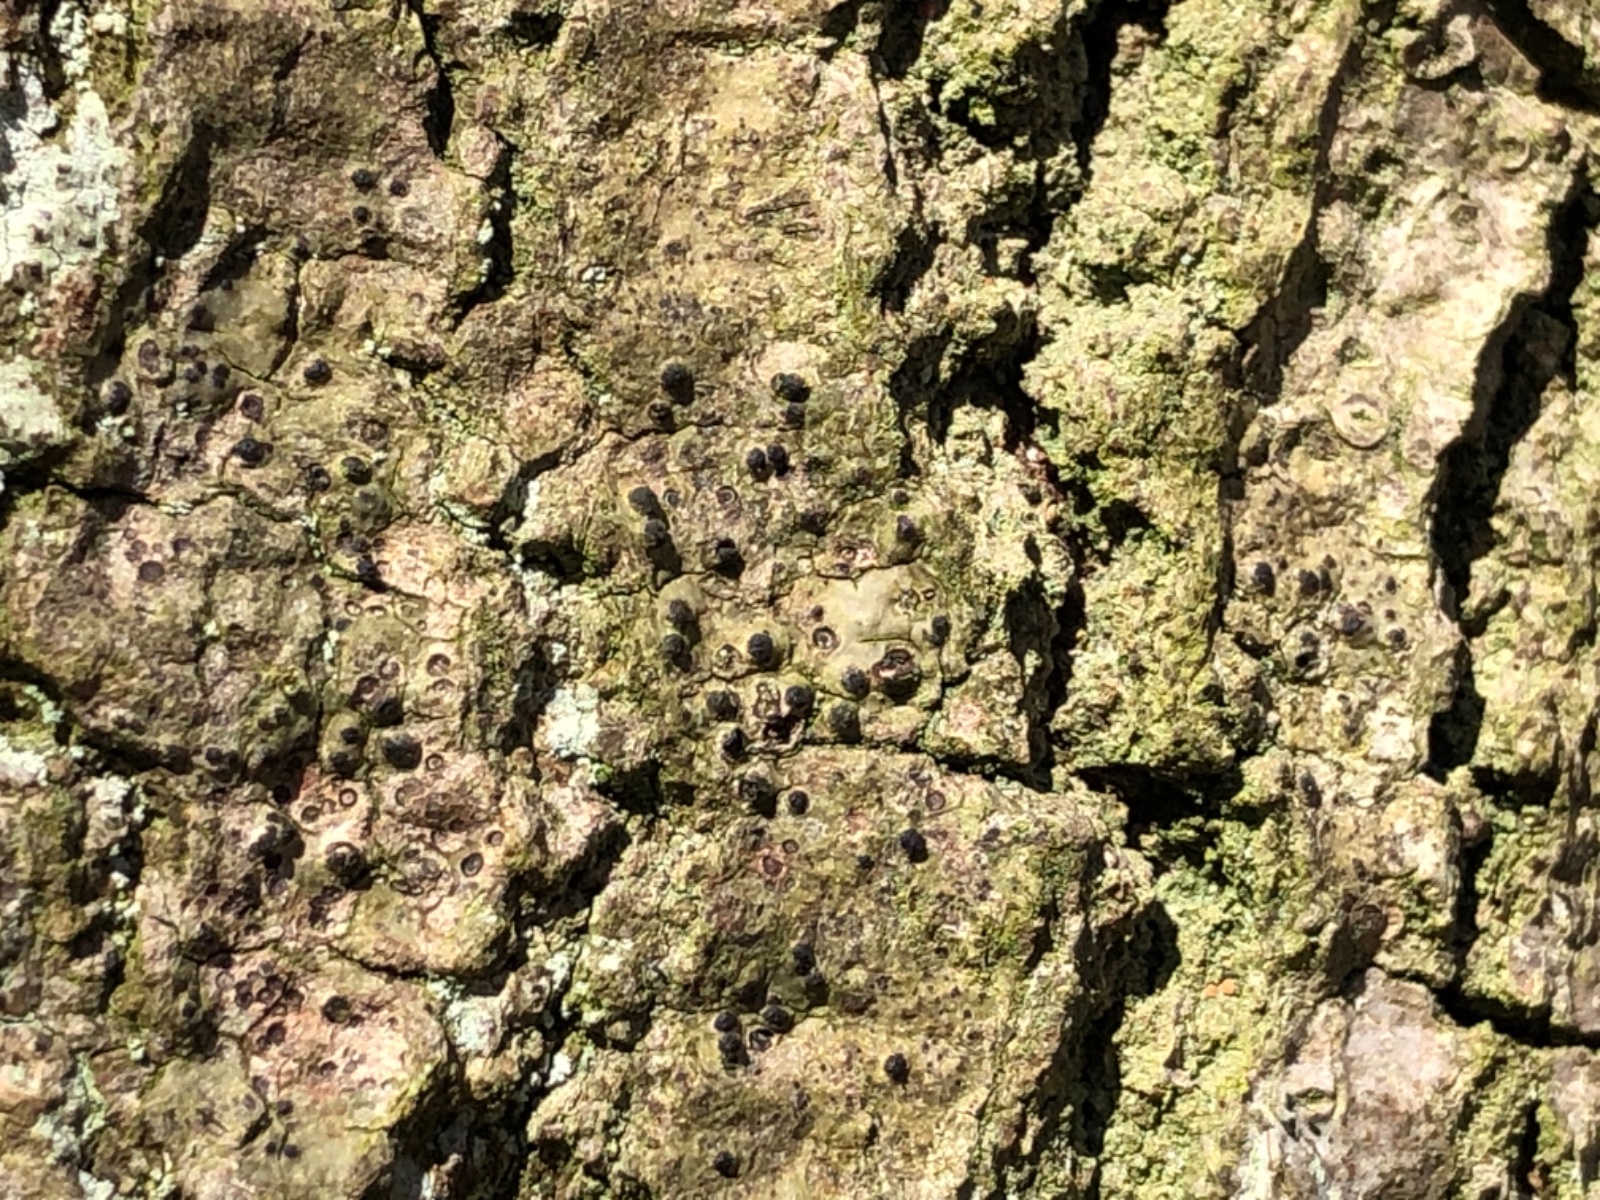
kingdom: Fungi
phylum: Ascomycota
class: Eurotiomycetes
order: Pyrenulales
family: Pyrenulaceae
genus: Pyrenula
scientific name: Pyrenula nitida
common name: glinsende kernelav
